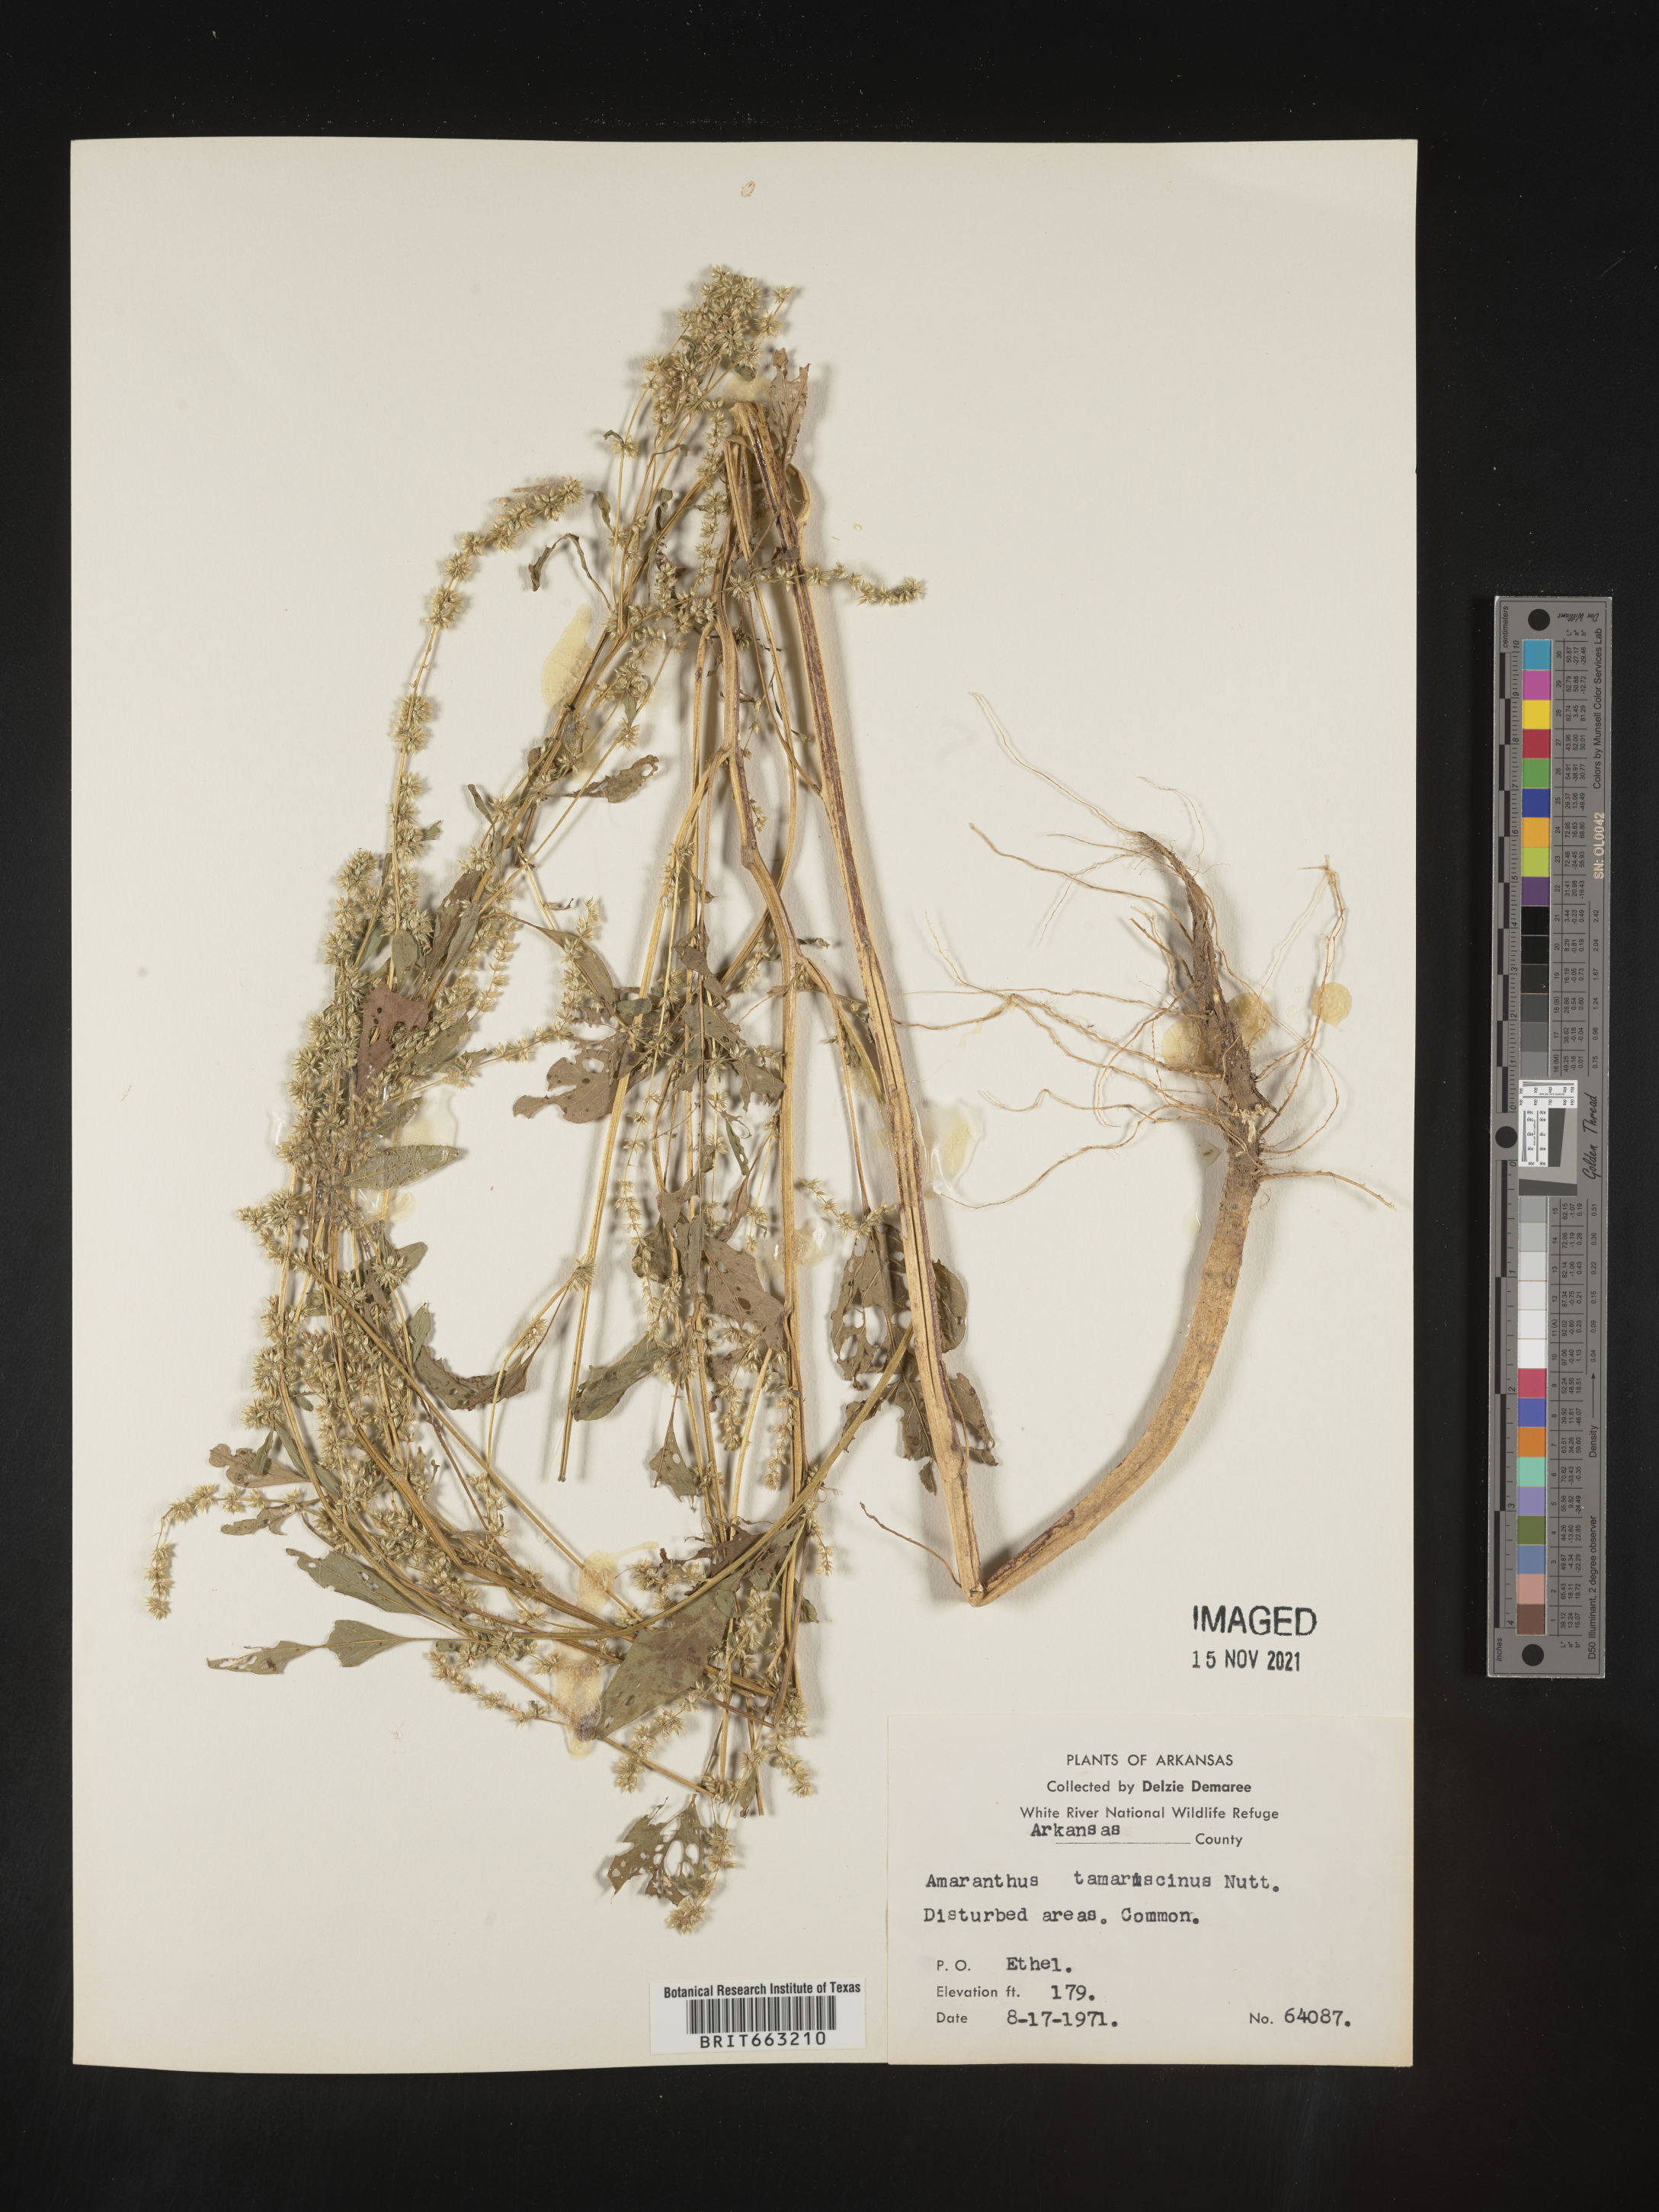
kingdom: Plantae
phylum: Tracheophyta
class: Magnoliopsida
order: Caryophyllales
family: Amaranthaceae
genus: Amaranthus
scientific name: Amaranthus tamariscinus
